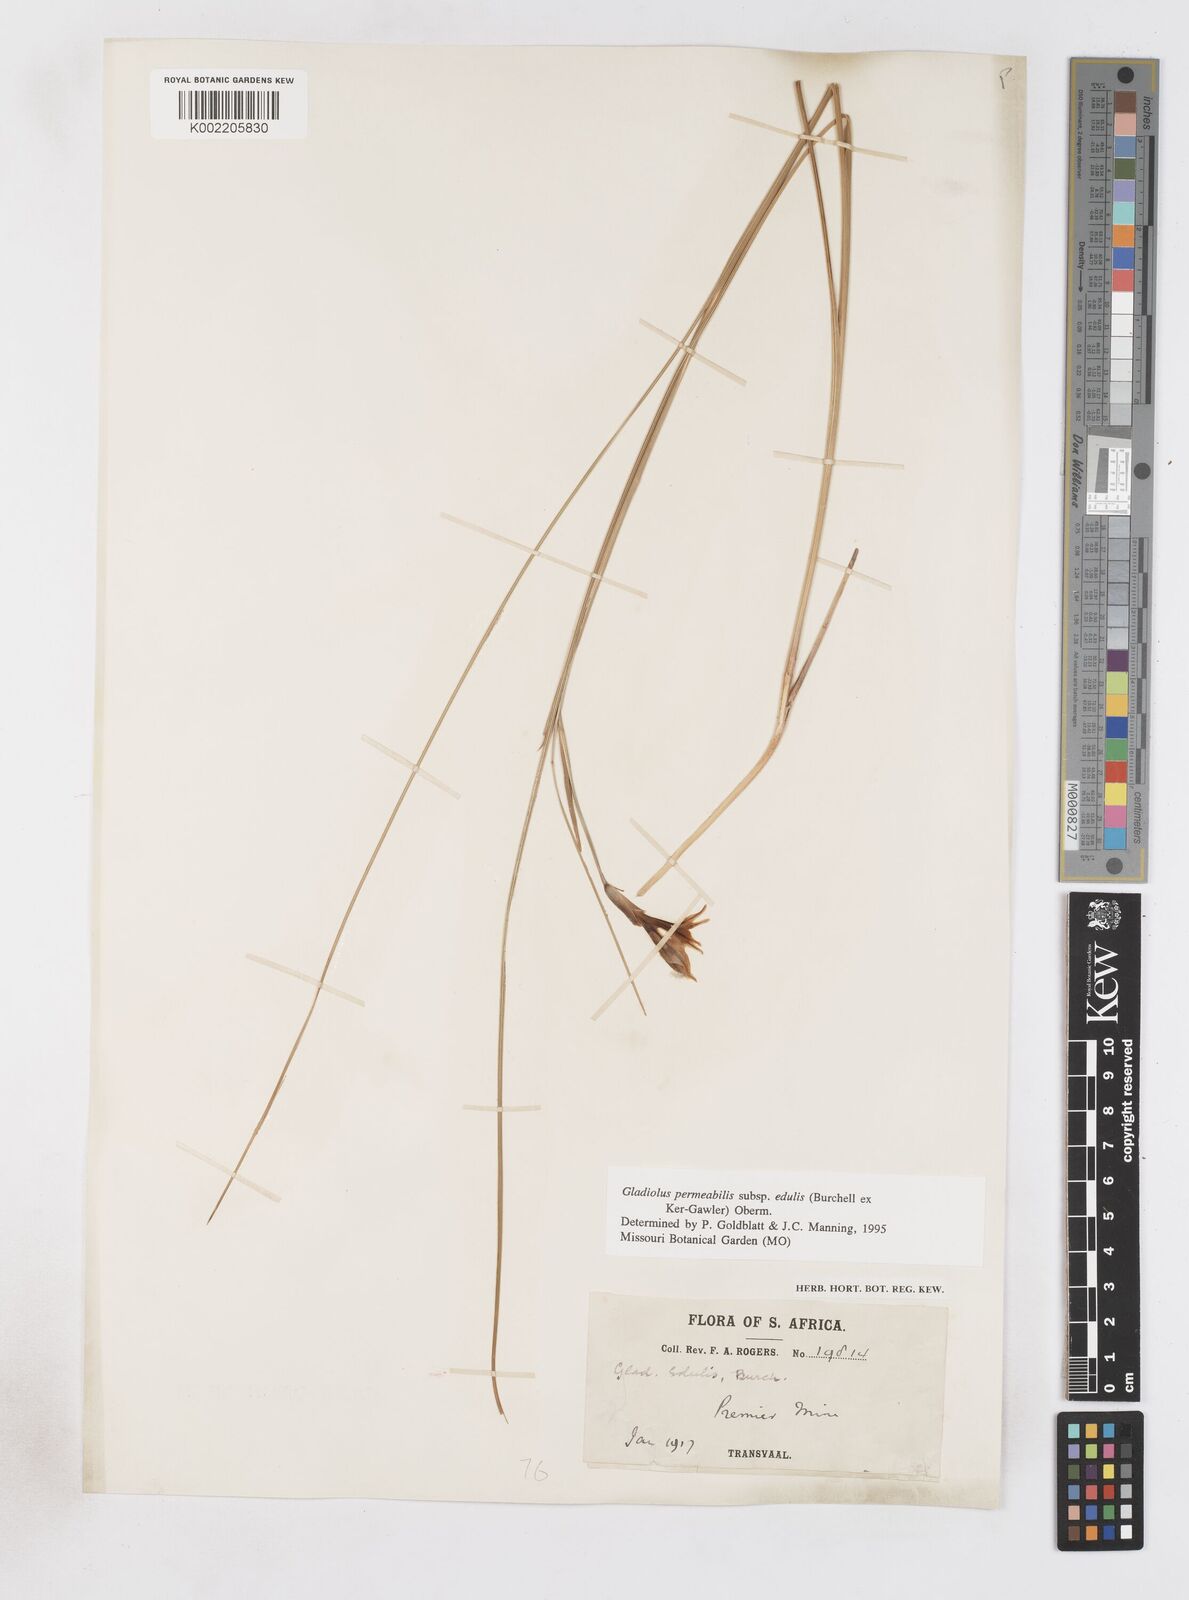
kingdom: Plantae
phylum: Tracheophyta
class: Liliopsida
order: Asparagales
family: Iridaceae
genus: Gladiolus
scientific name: Gladiolus permeabilis
